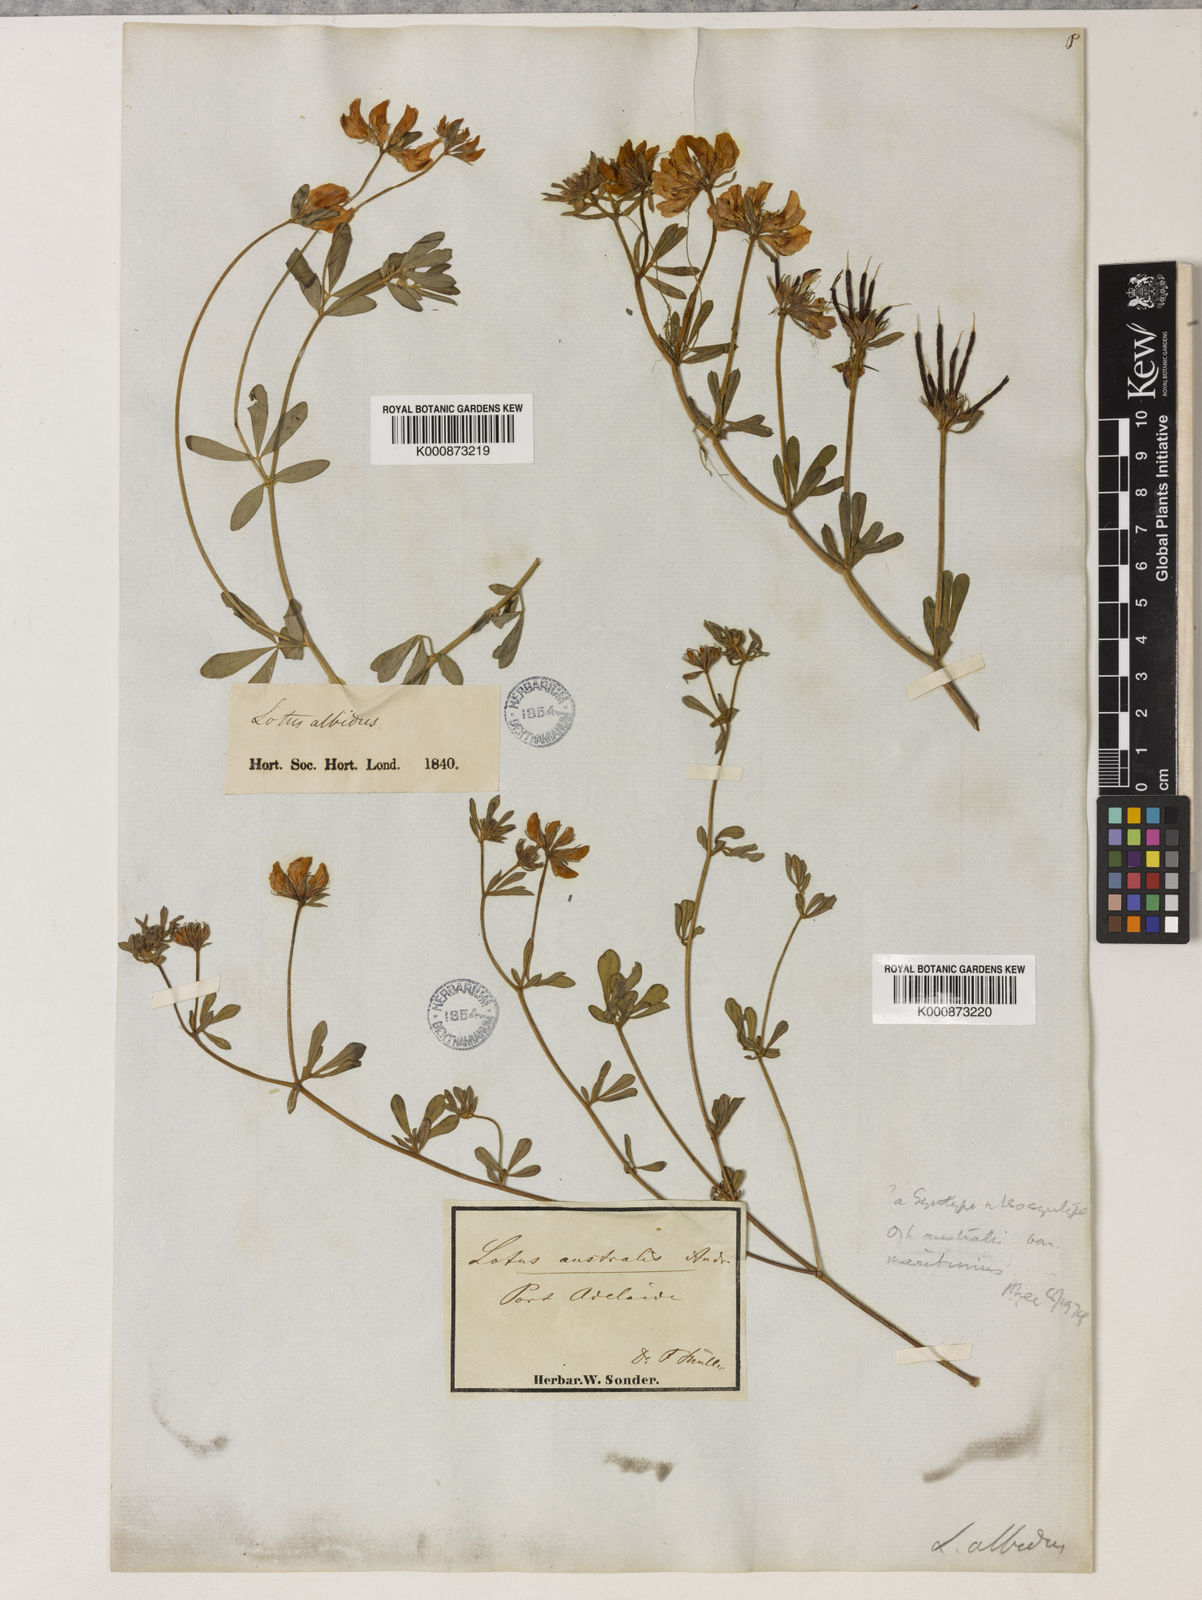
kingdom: Plantae
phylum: Tracheophyta
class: Magnoliopsida
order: Fabales
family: Fabaceae
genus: Lotus
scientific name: Lotus australis
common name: Australian trefoil
